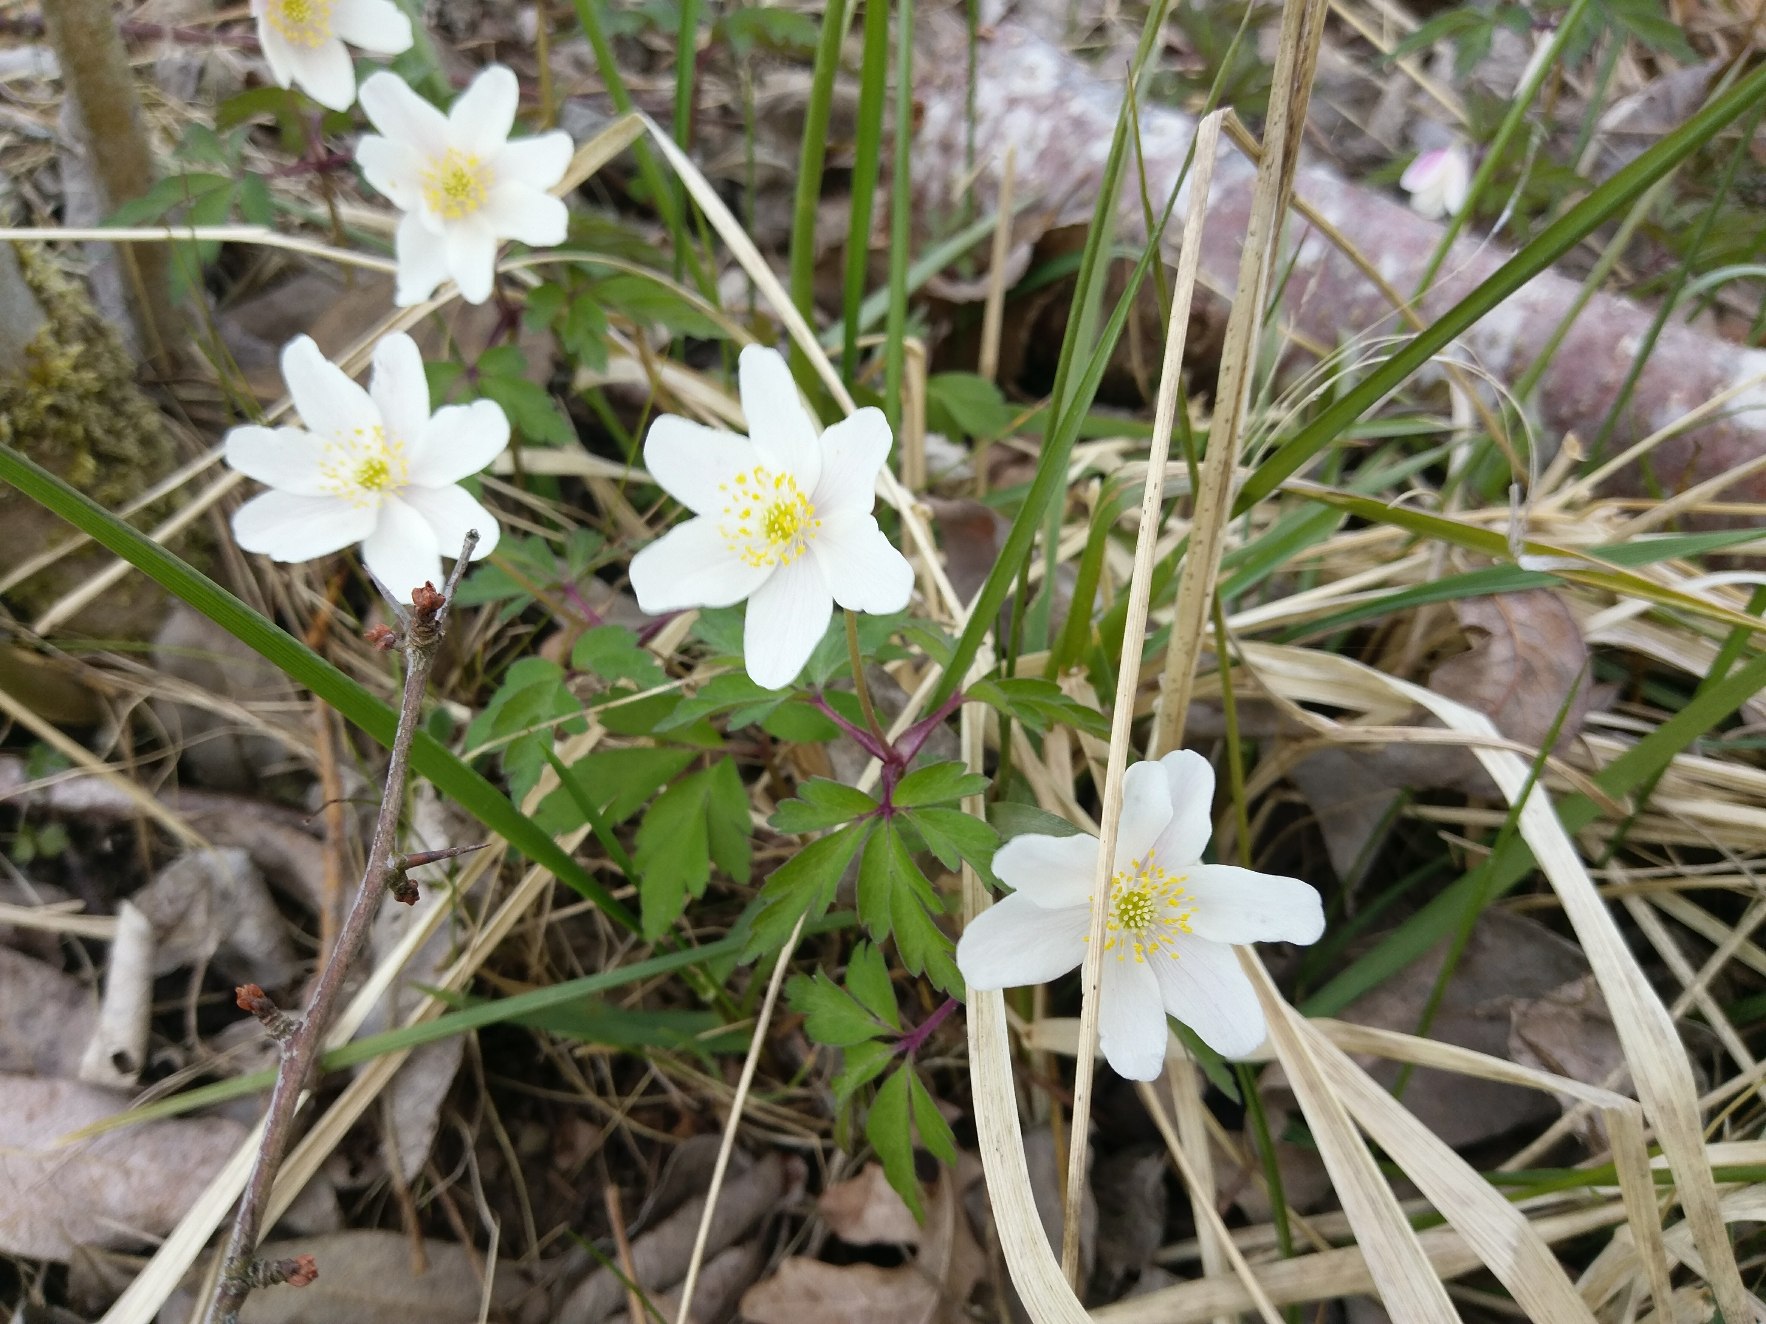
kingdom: Plantae
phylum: Tracheophyta
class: Magnoliopsida
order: Ranunculales
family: Ranunculaceae
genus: Anemone
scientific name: Anemone nemorosa
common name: Hvid anemone
